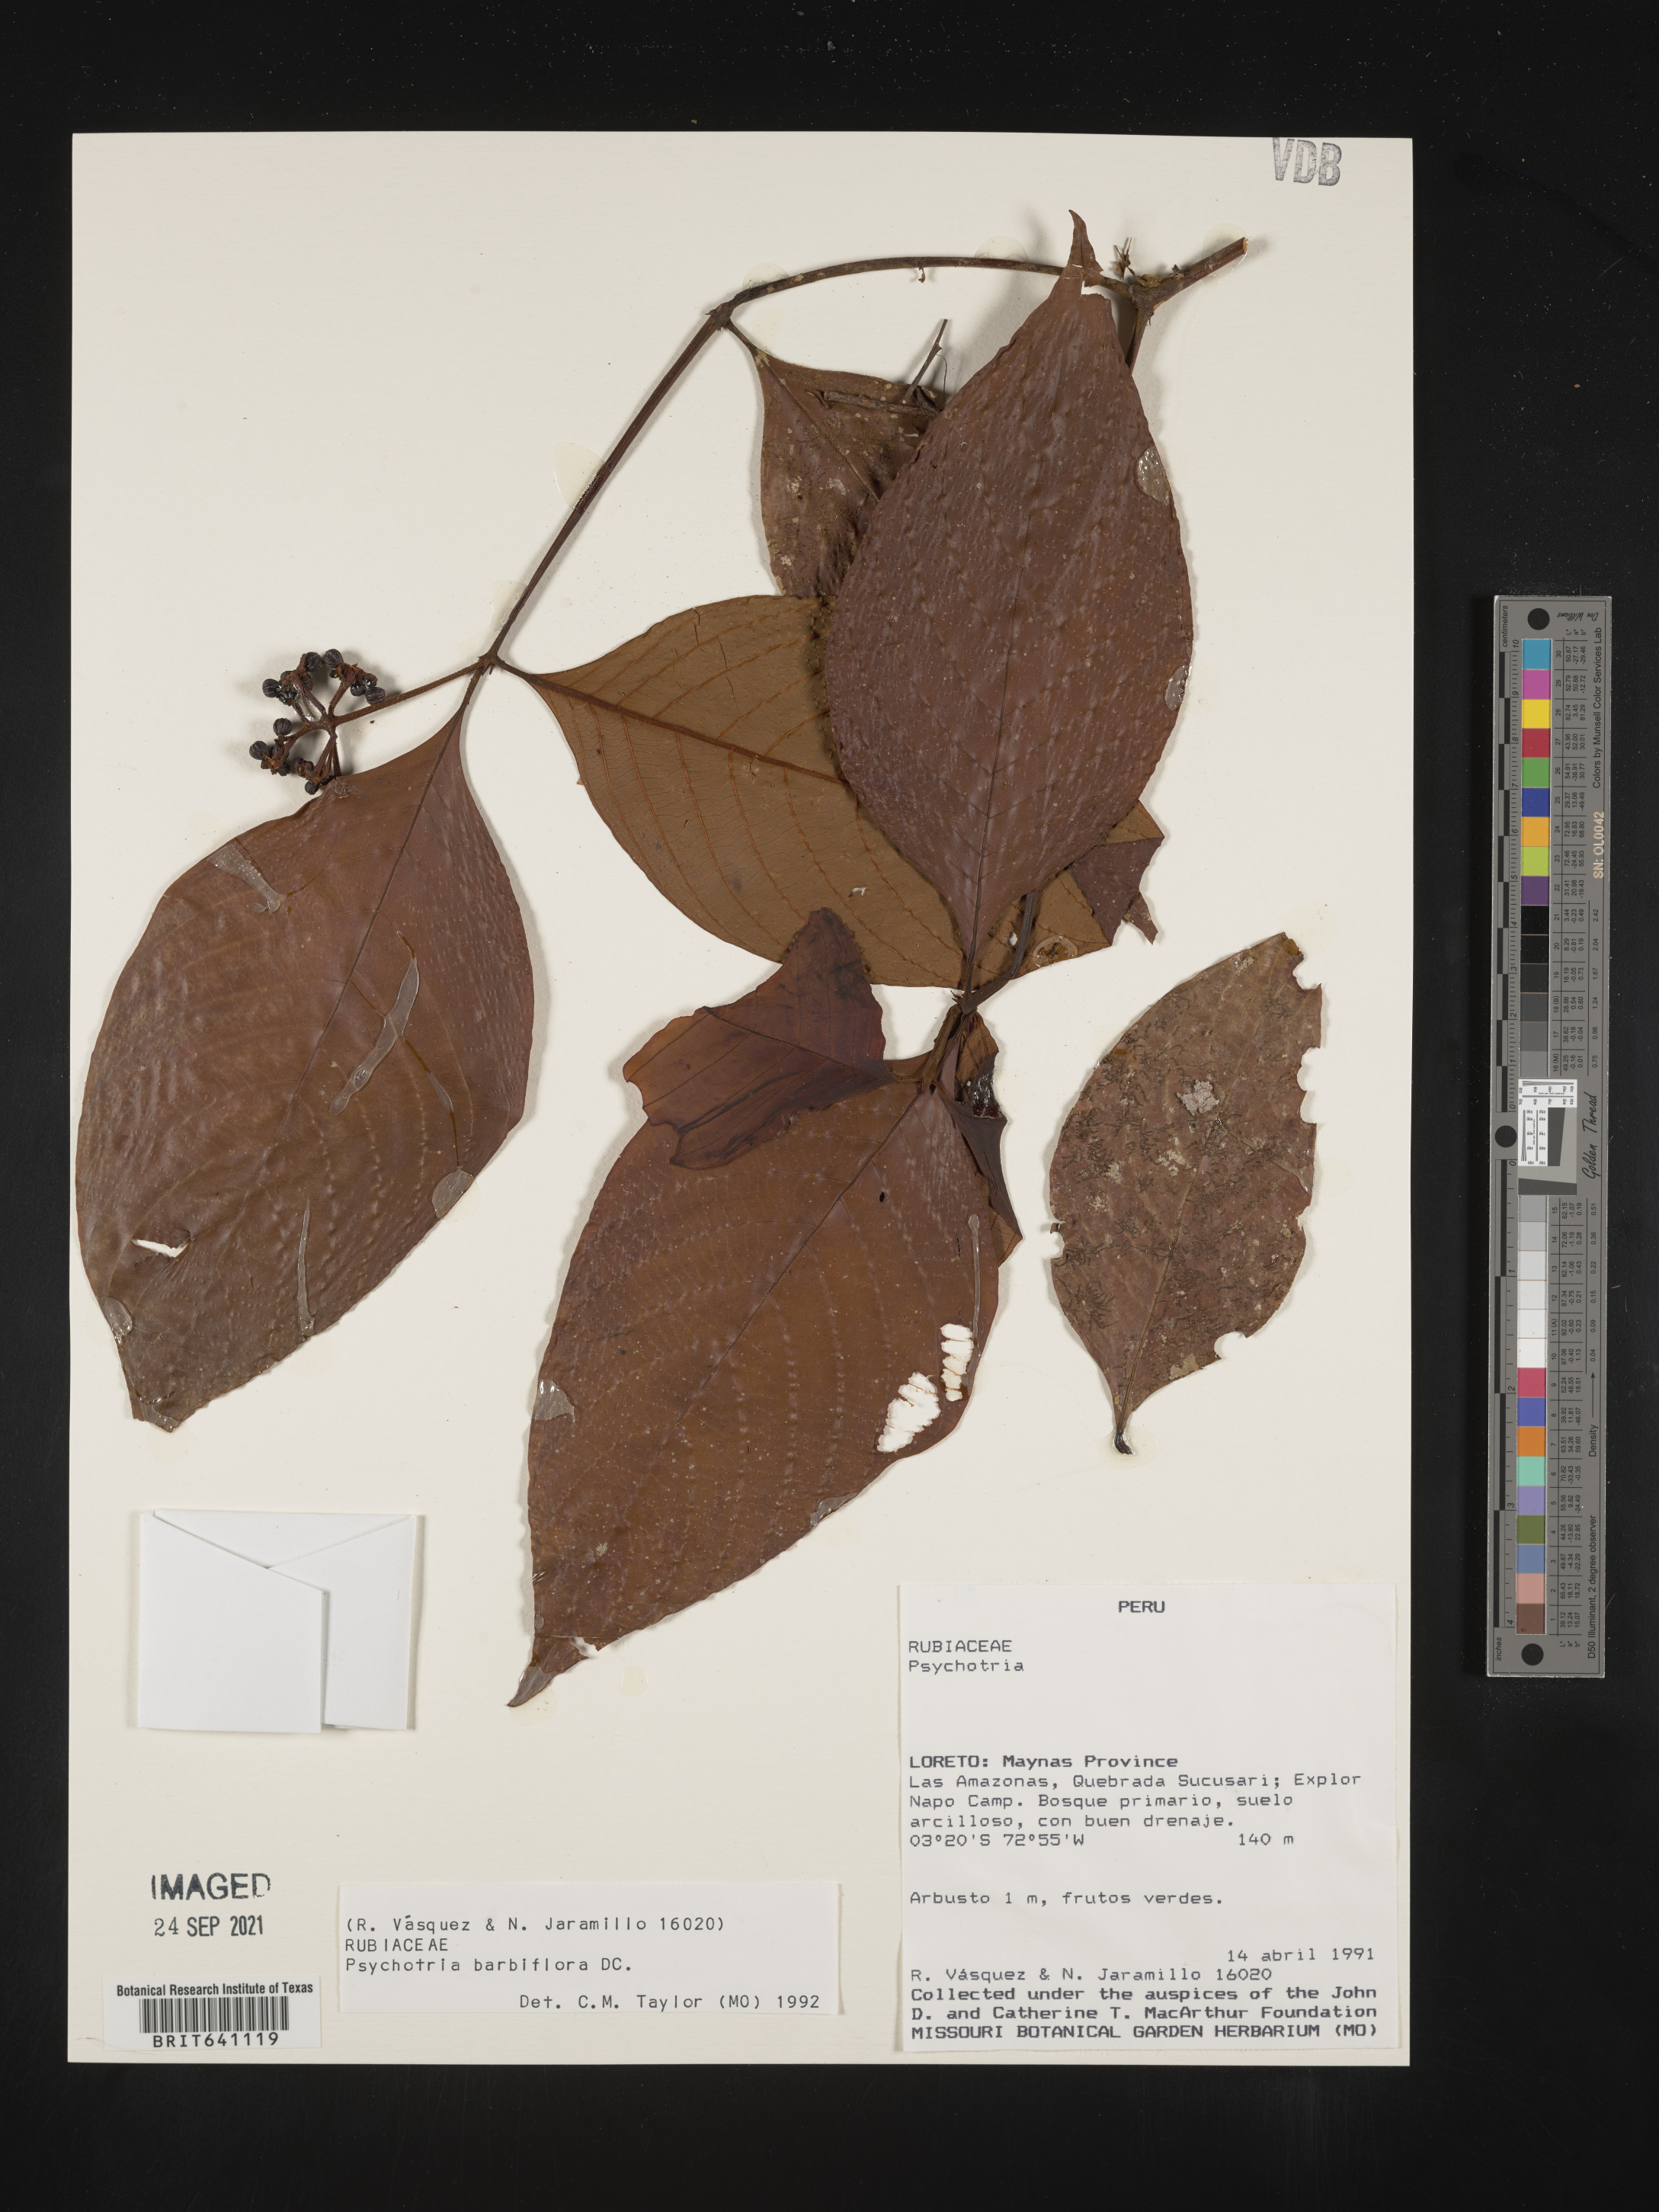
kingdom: Plantae
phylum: Tracheophyta
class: Magnoliopsida
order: Gentianales
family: Rubiaceae
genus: Psychotria
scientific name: Psychotria
